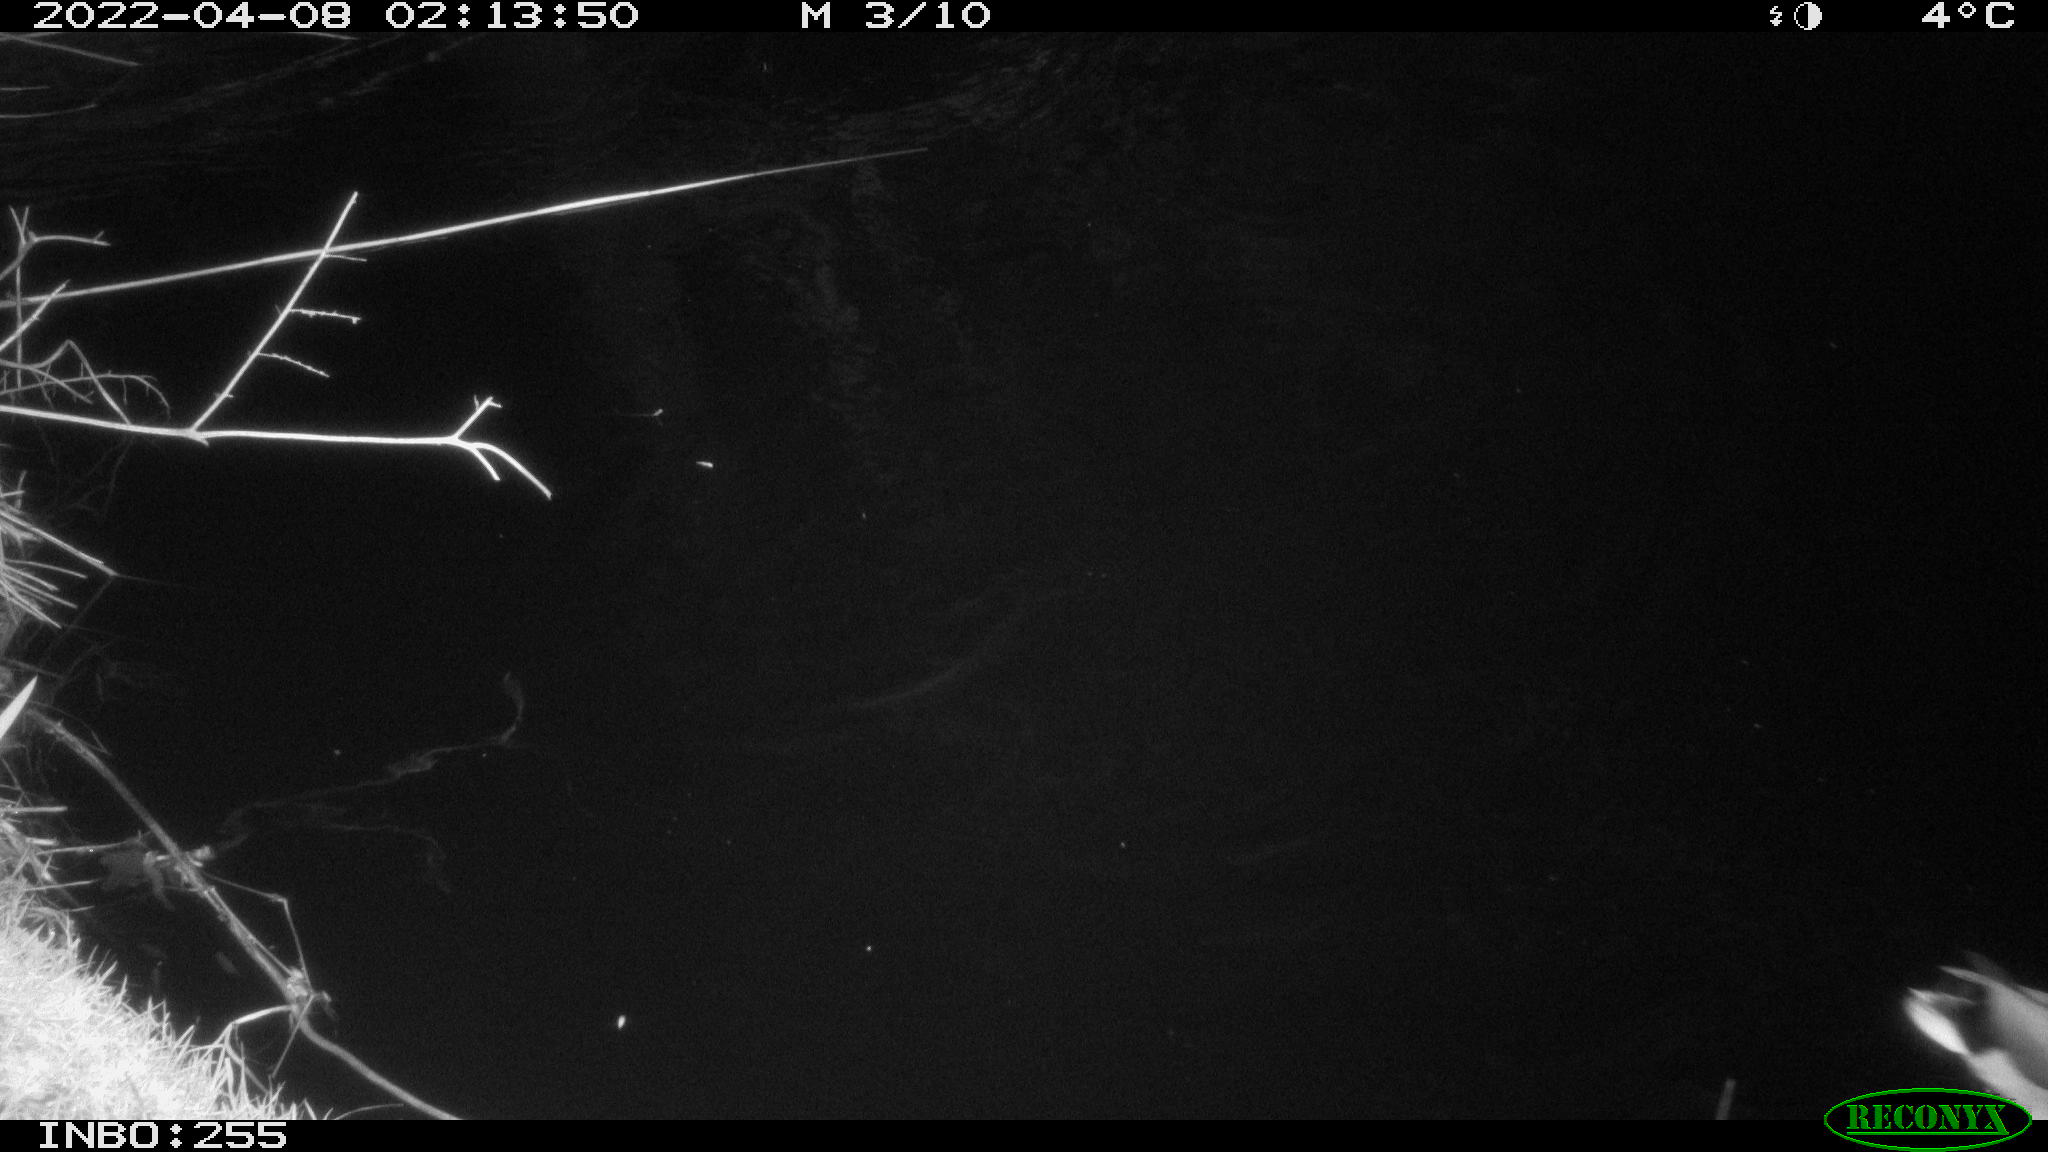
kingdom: Animalia
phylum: Chordata
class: Aves
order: Anseriformes
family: Anatidae
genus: Anas
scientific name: Anas platyrhynchos
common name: Mallard
